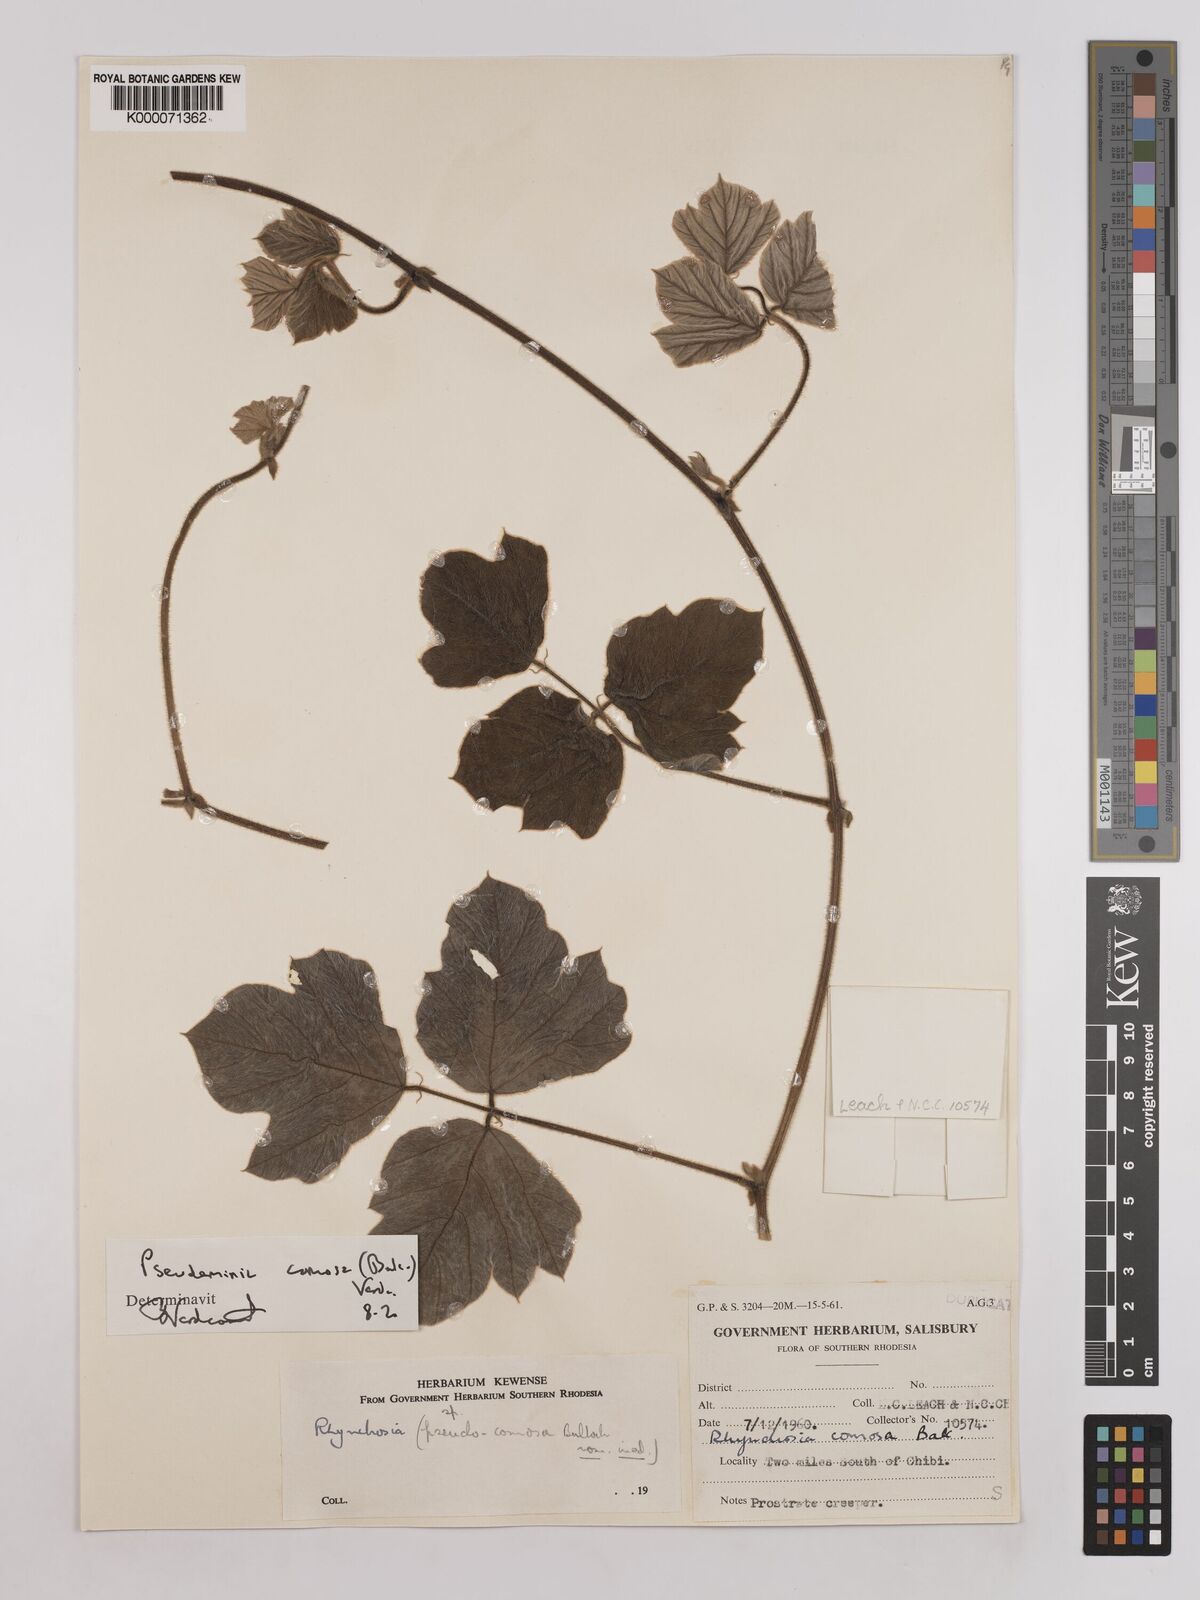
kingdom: Plantae
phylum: Tracheophyta
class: Magnoliopsida
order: Fabales
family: Fabaceae
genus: Pseudeminia
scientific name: Pseudeminia comosa
